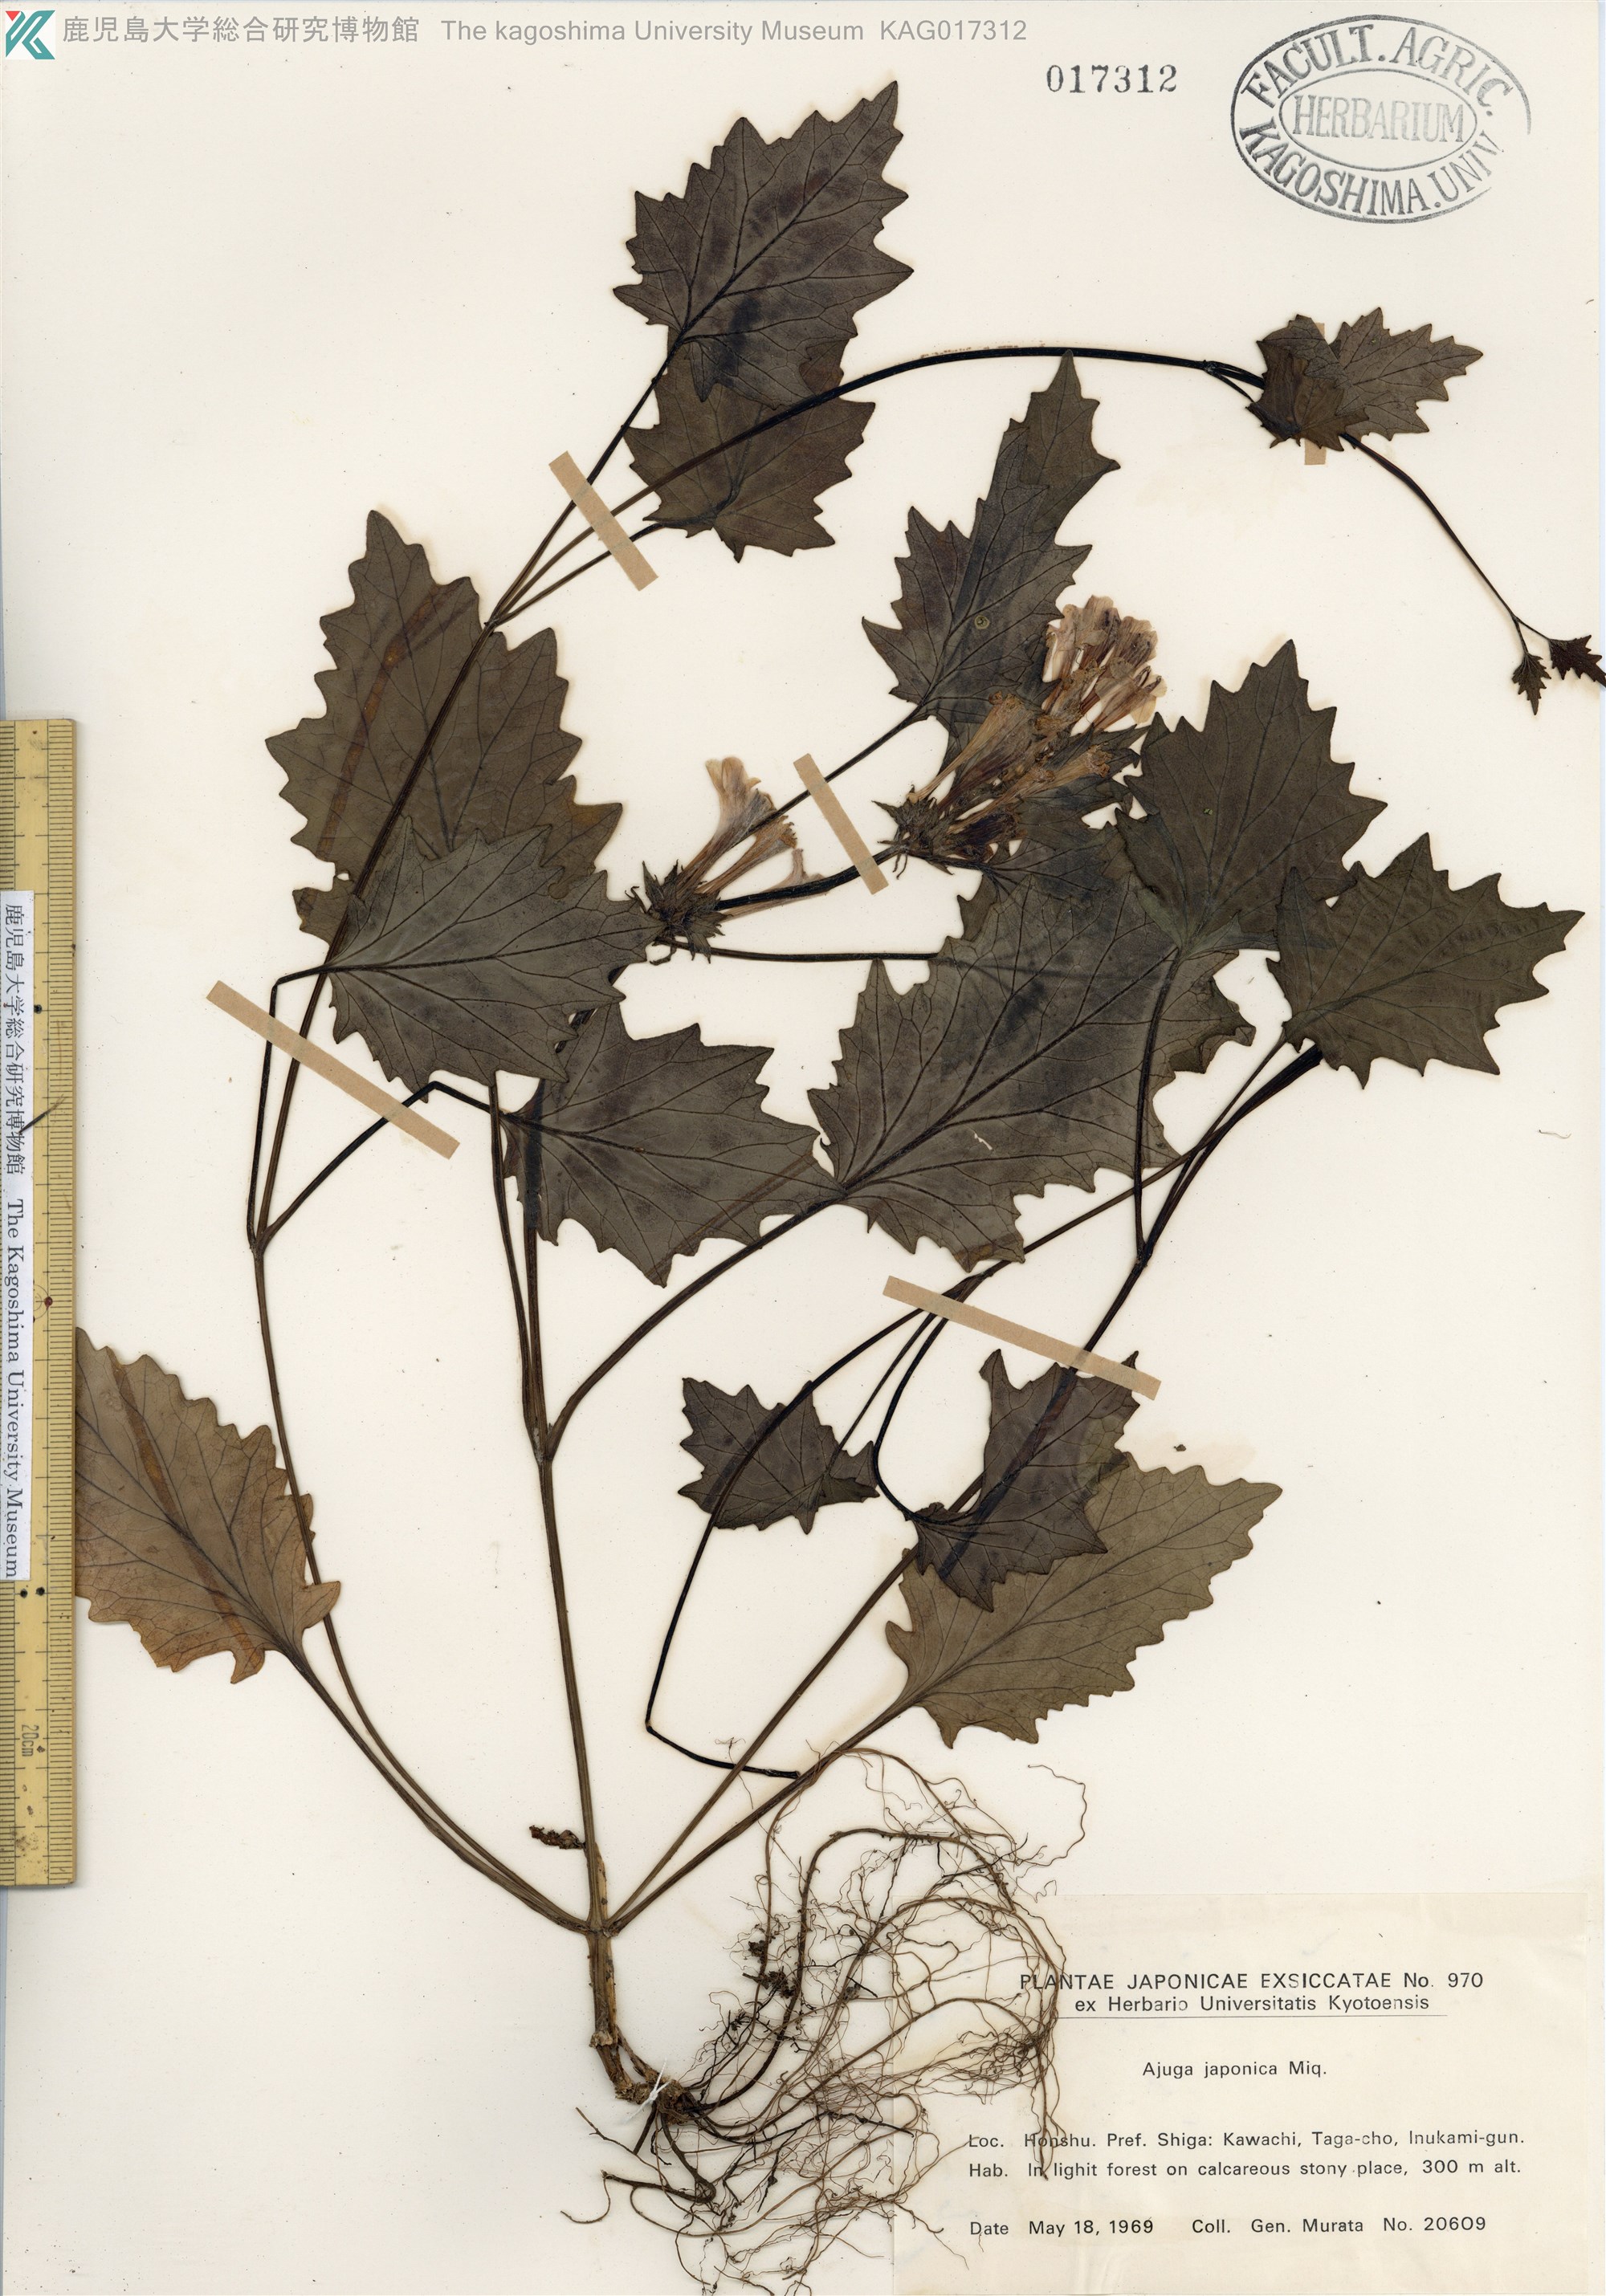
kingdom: Plantae
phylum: Tracheophyta
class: Magnoliopsida
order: Lamiales
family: Lamiaceae
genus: Ajuga
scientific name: Ajuga japonica
